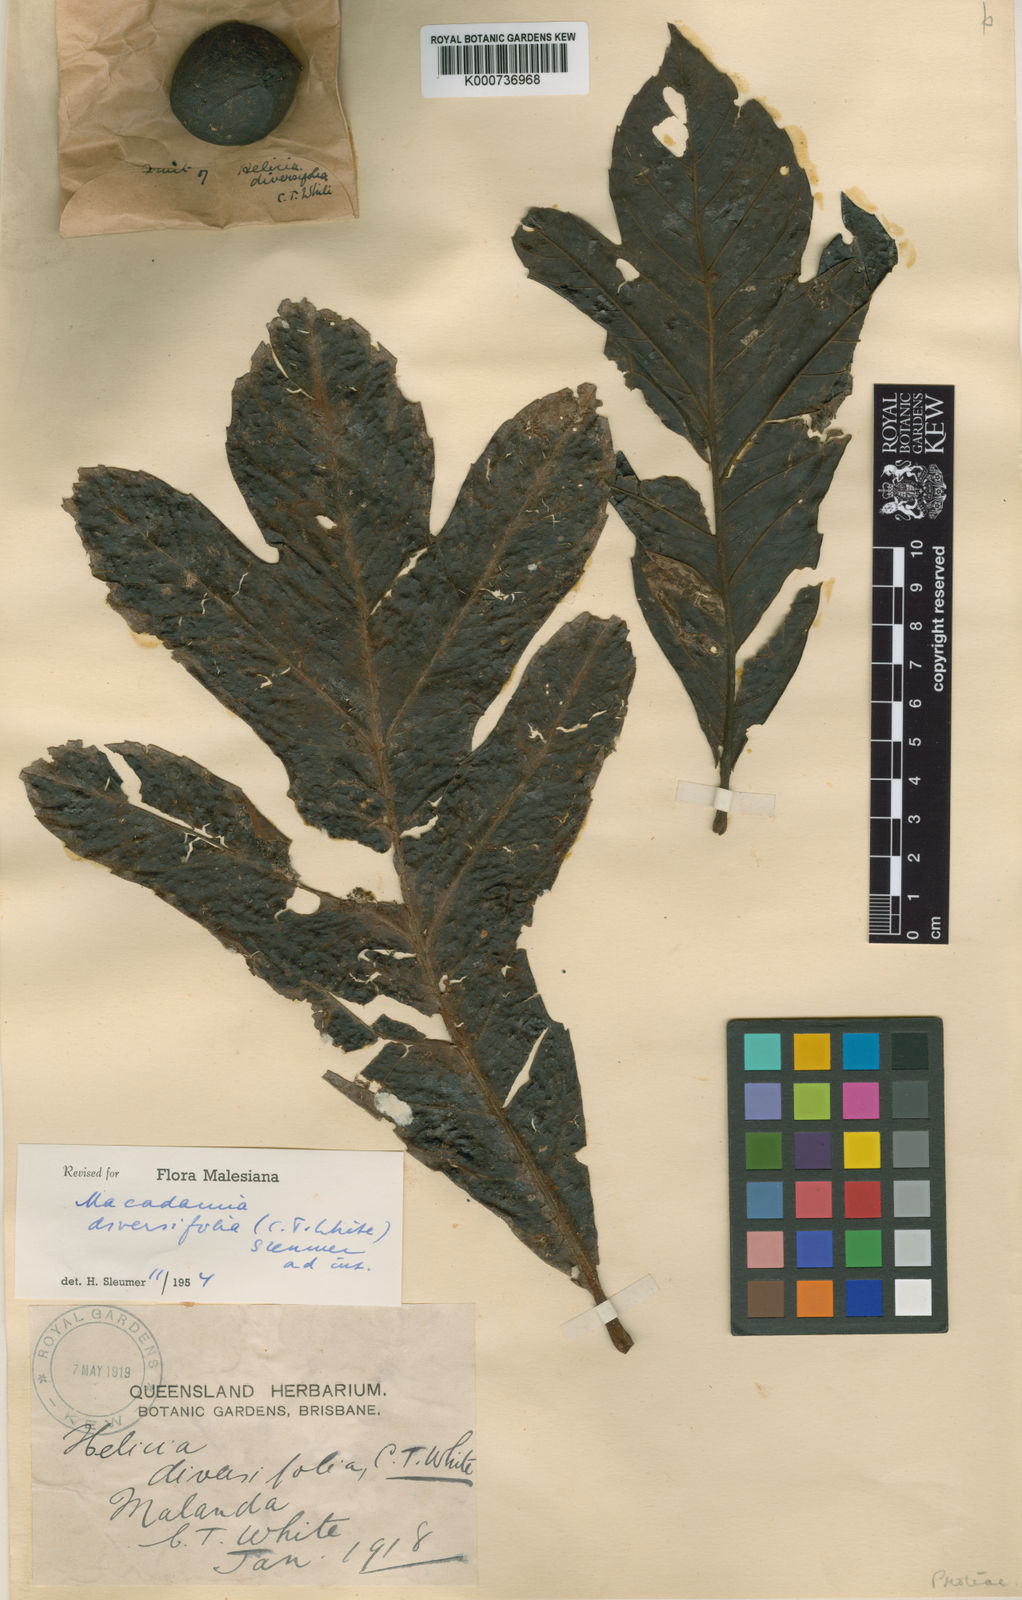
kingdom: Plantae
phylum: Tracheophyta
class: Magnoliopsida
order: Proteales
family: Proteaceae
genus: Athertonia
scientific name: Athertonia diversifolia
